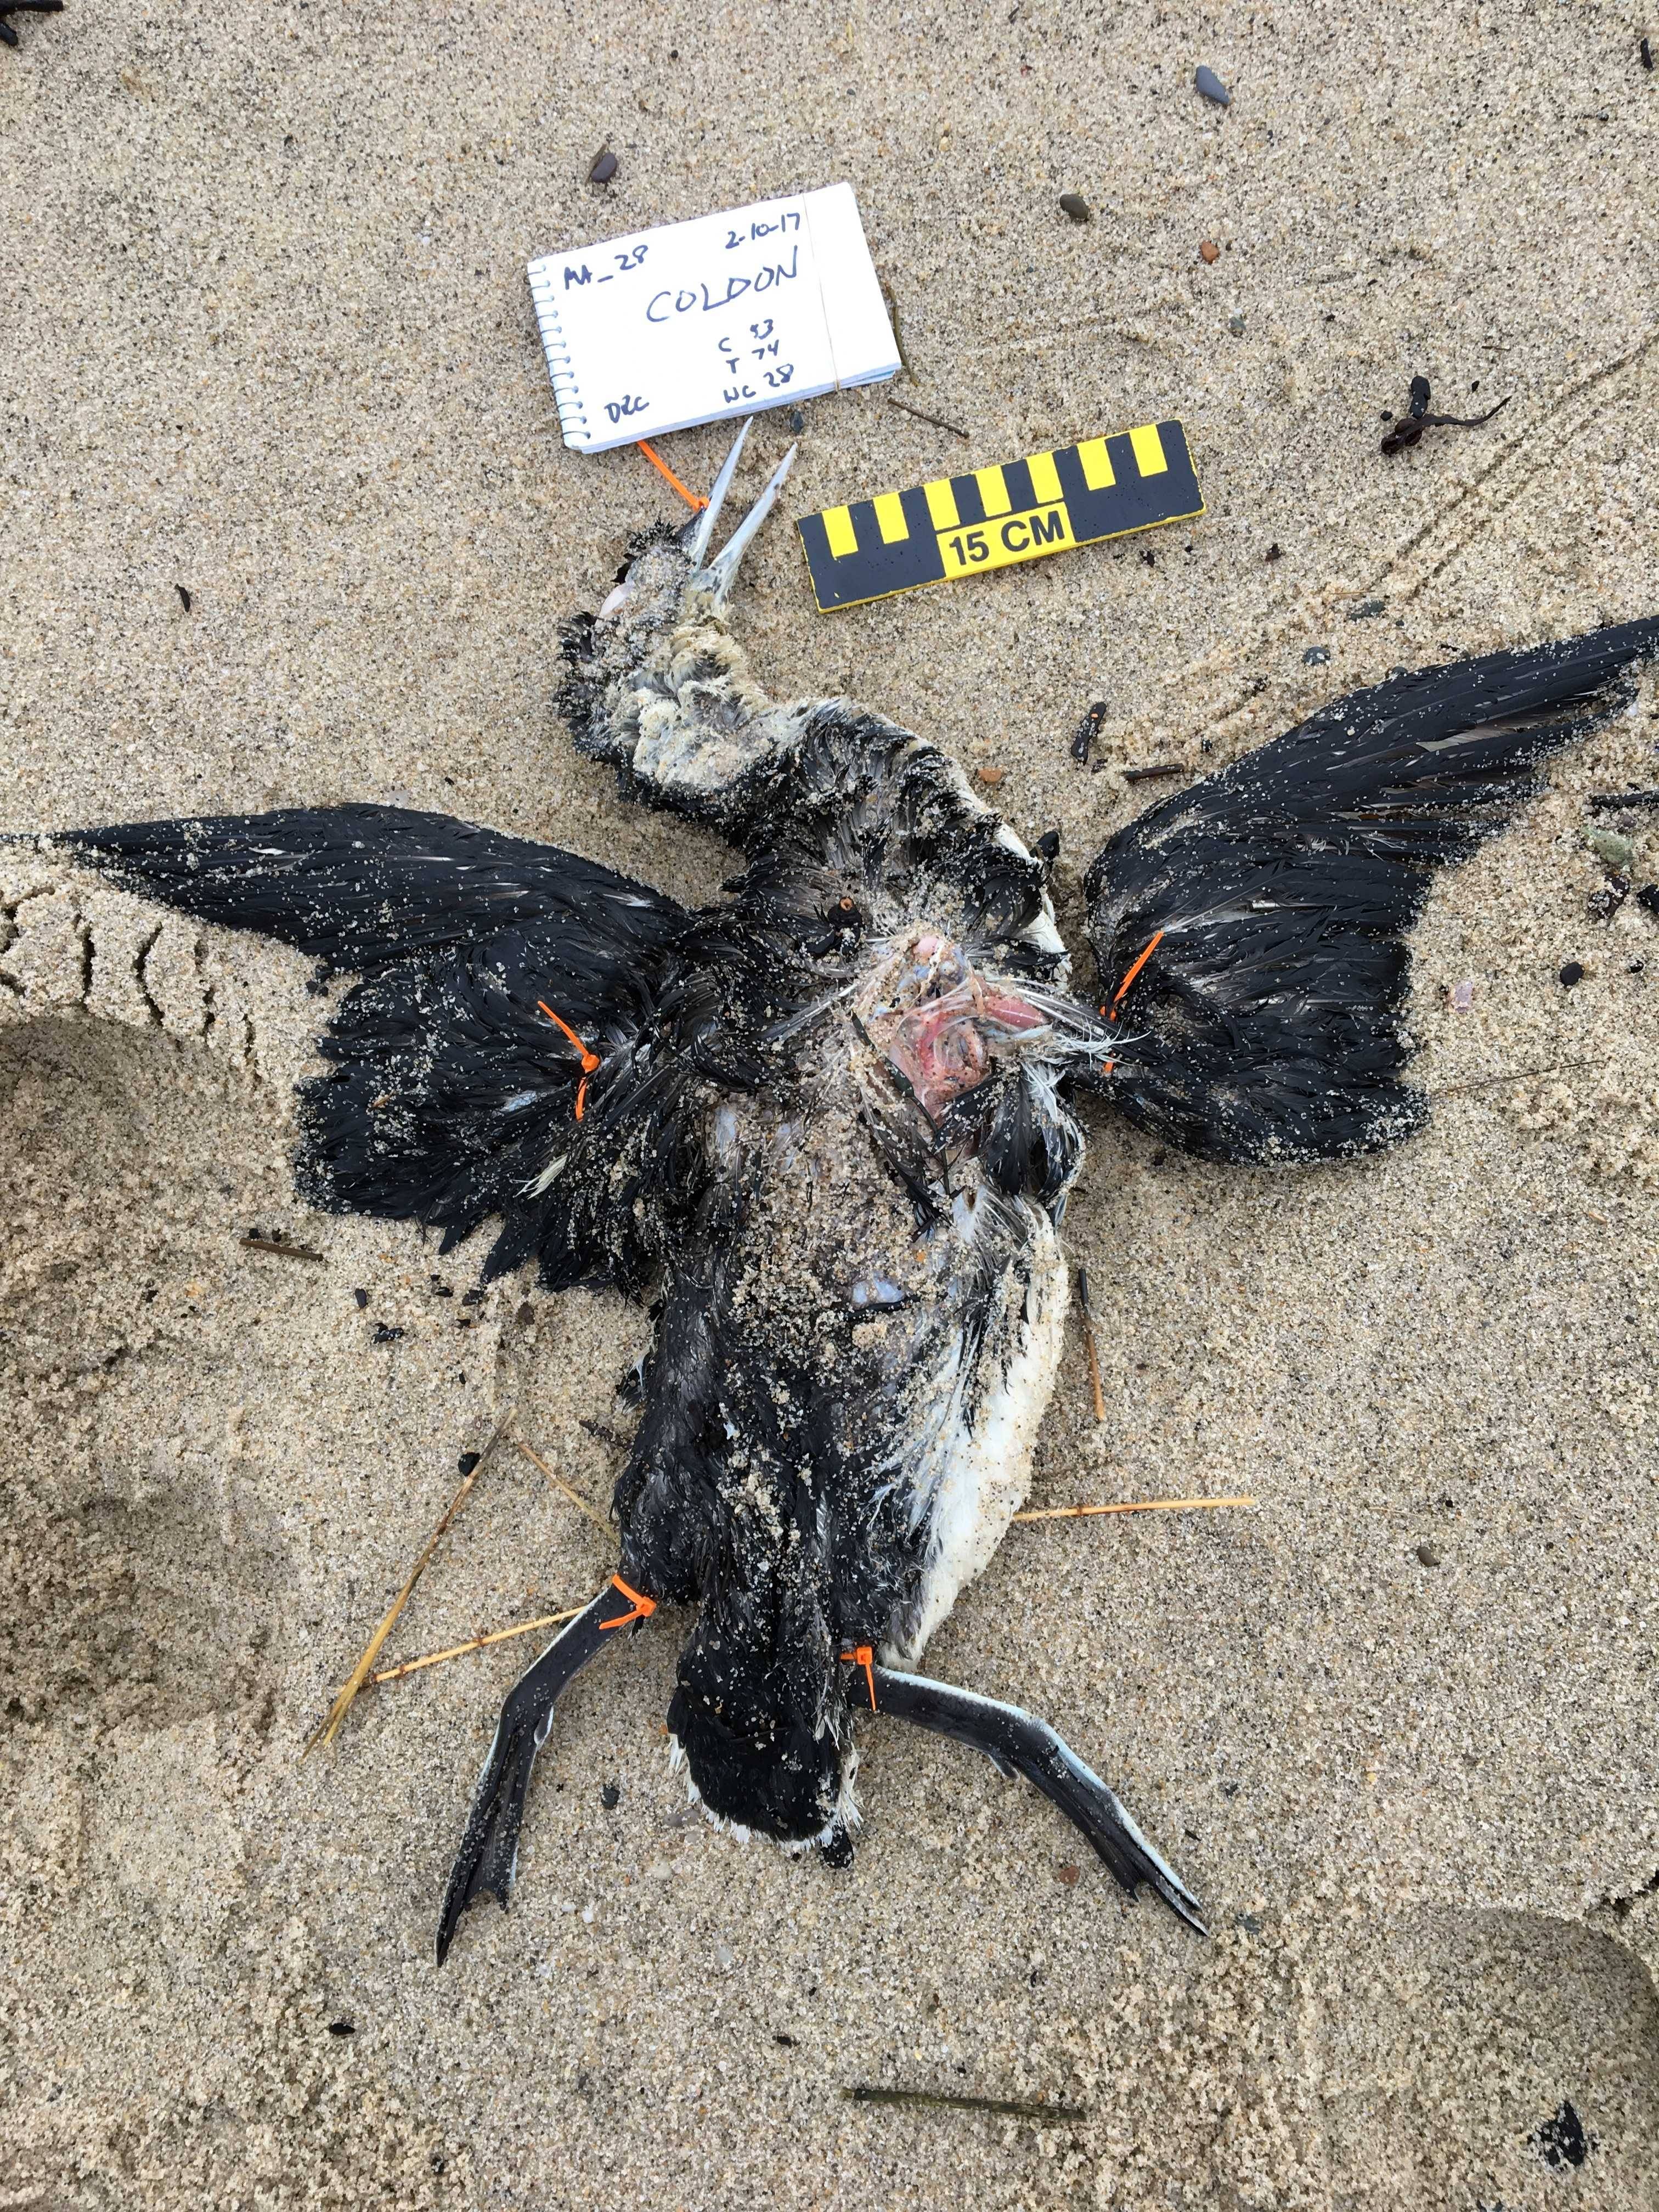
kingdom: Animalia
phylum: Chordata
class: Aves
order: Gaviiformes
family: Gaviidae
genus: Gavia
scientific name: Gavia stellata
